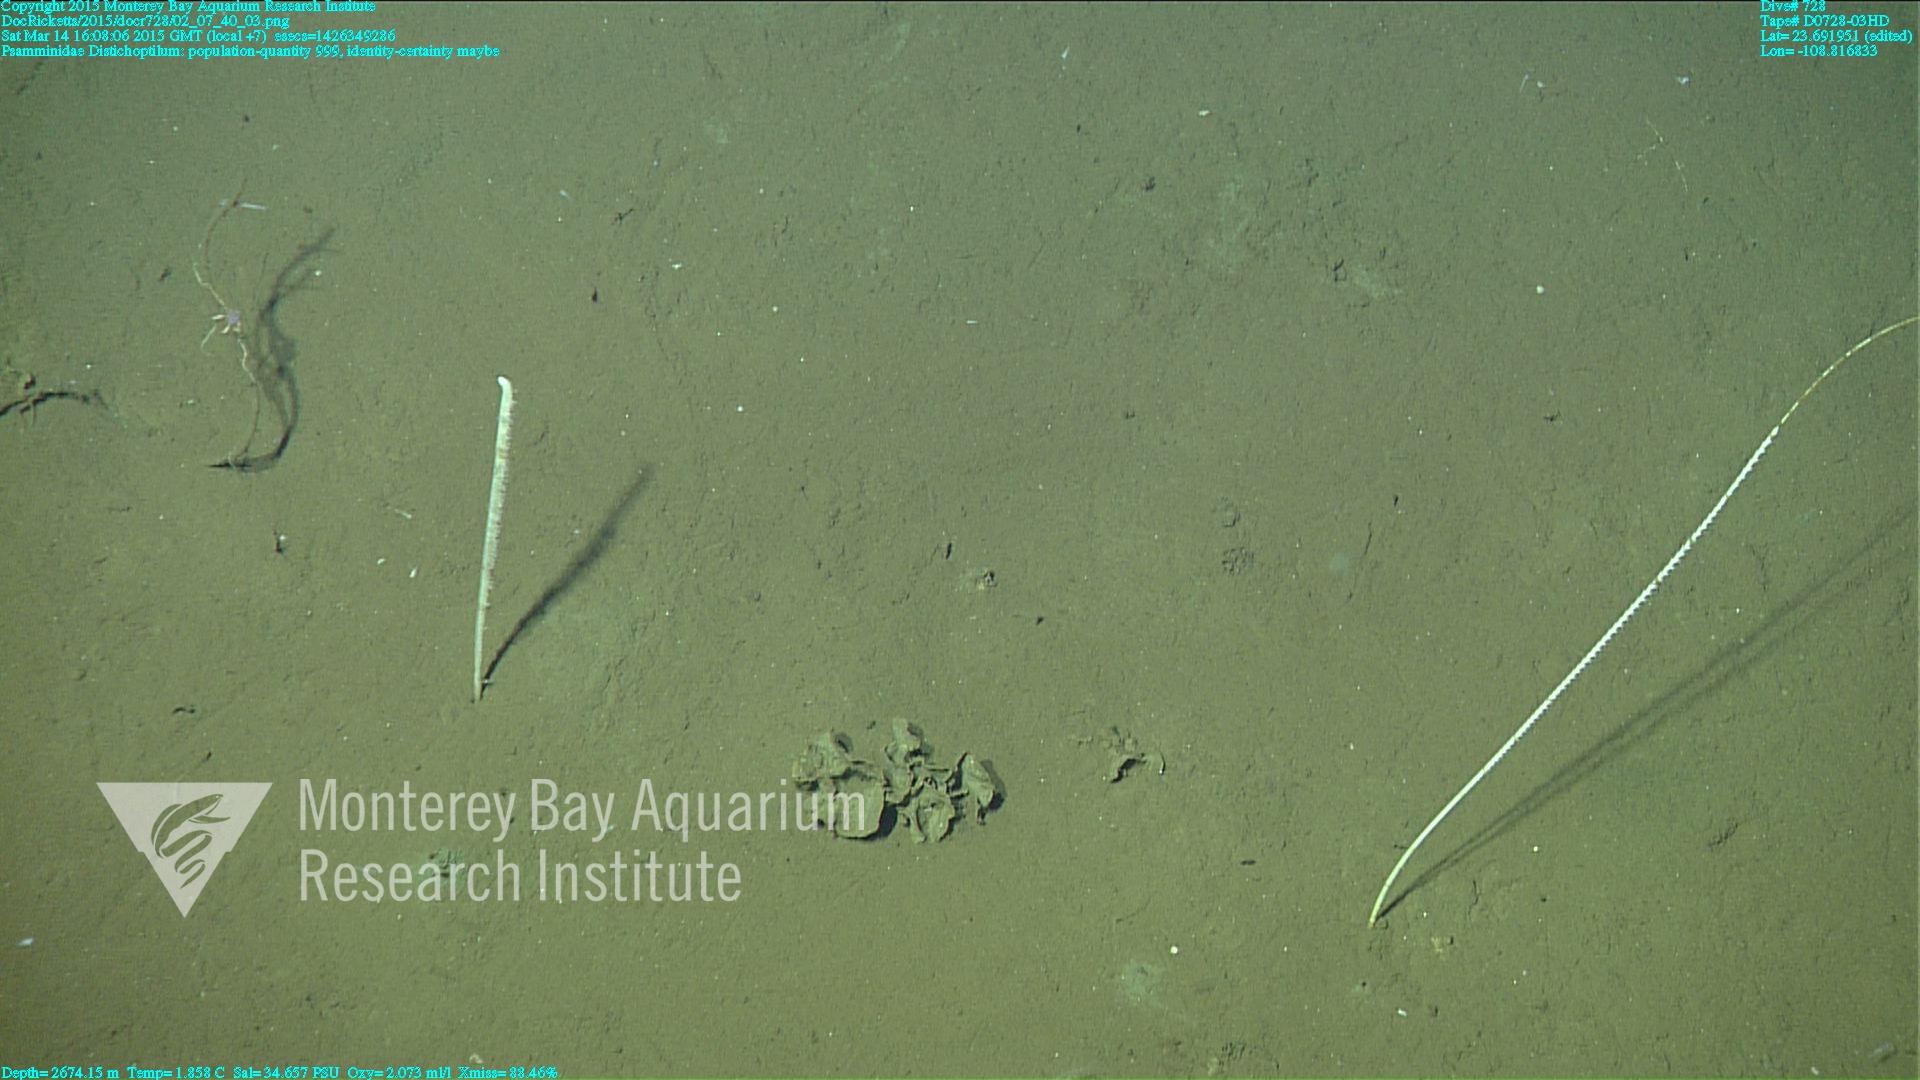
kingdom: Animalia
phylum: Cnidaria
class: Anthozoa
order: Scleralcyonacea
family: Protoptilidae
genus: Distichoptilum
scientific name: Distichoptilum
